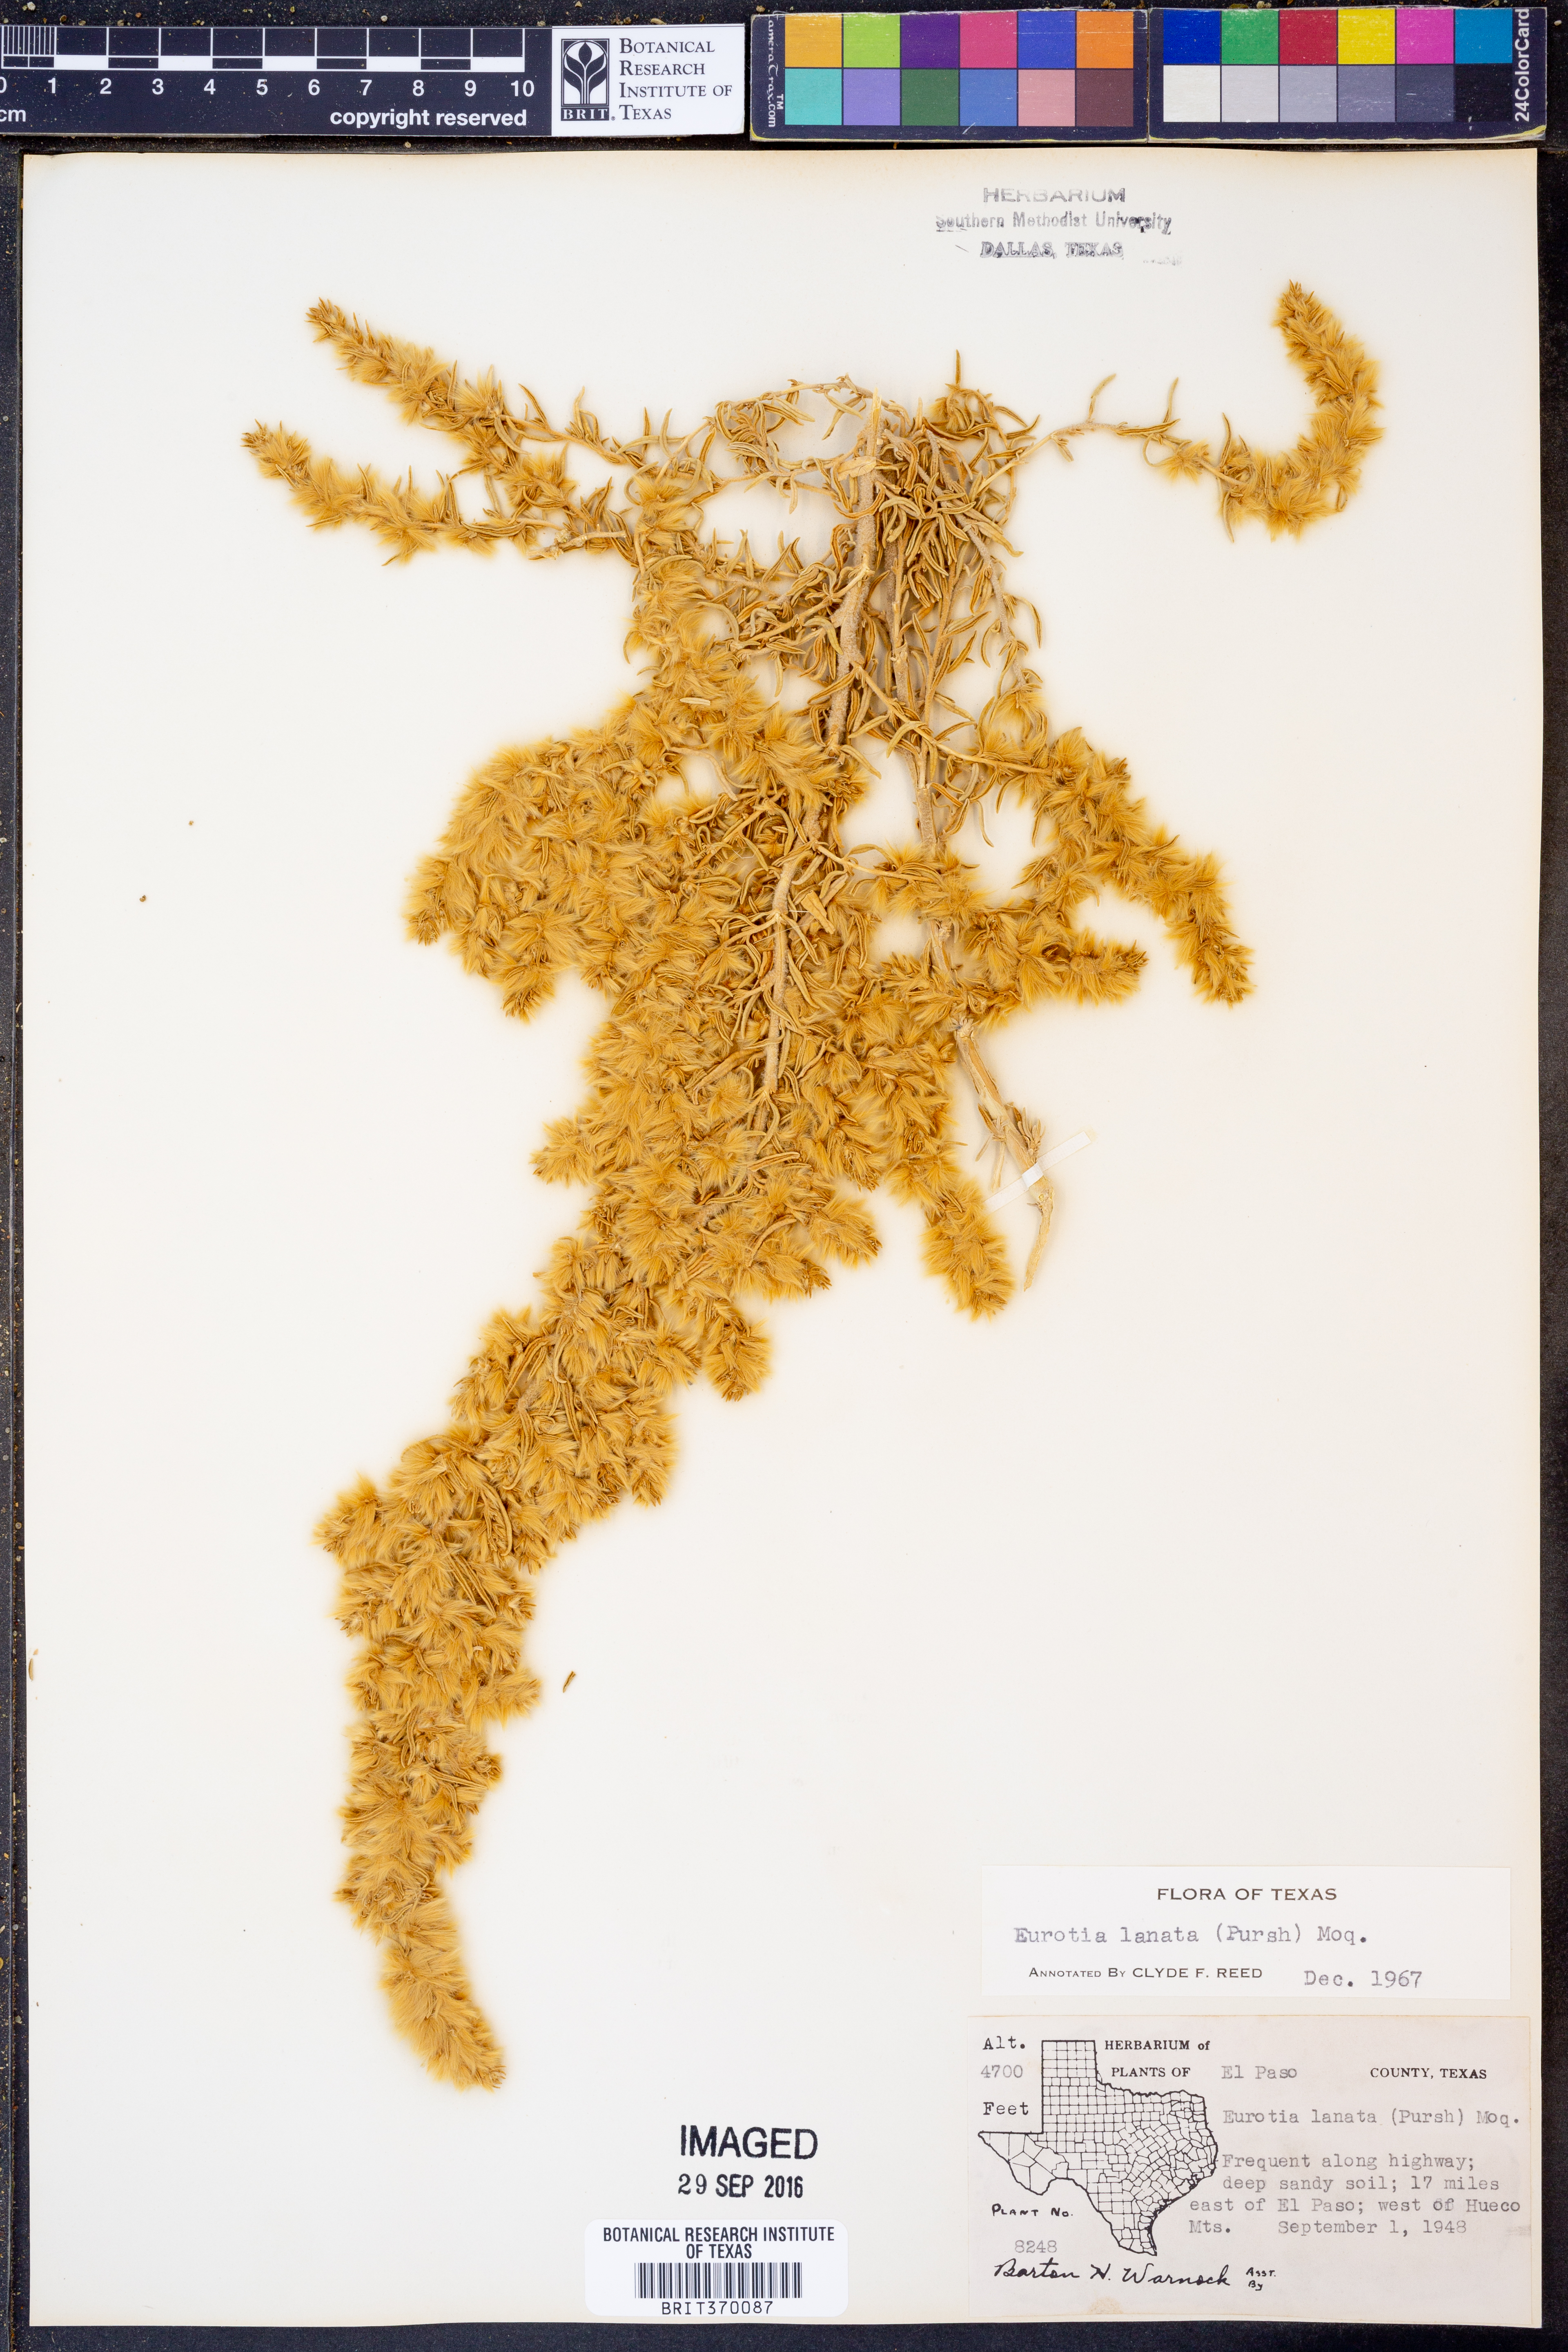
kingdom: Plantae
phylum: Tracheophyta
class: Magnoliopsida
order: Caryophyllales
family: Amaranthaceae
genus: Krascheninnikovia
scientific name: Krascheninnikovia lanata
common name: Winterfat
